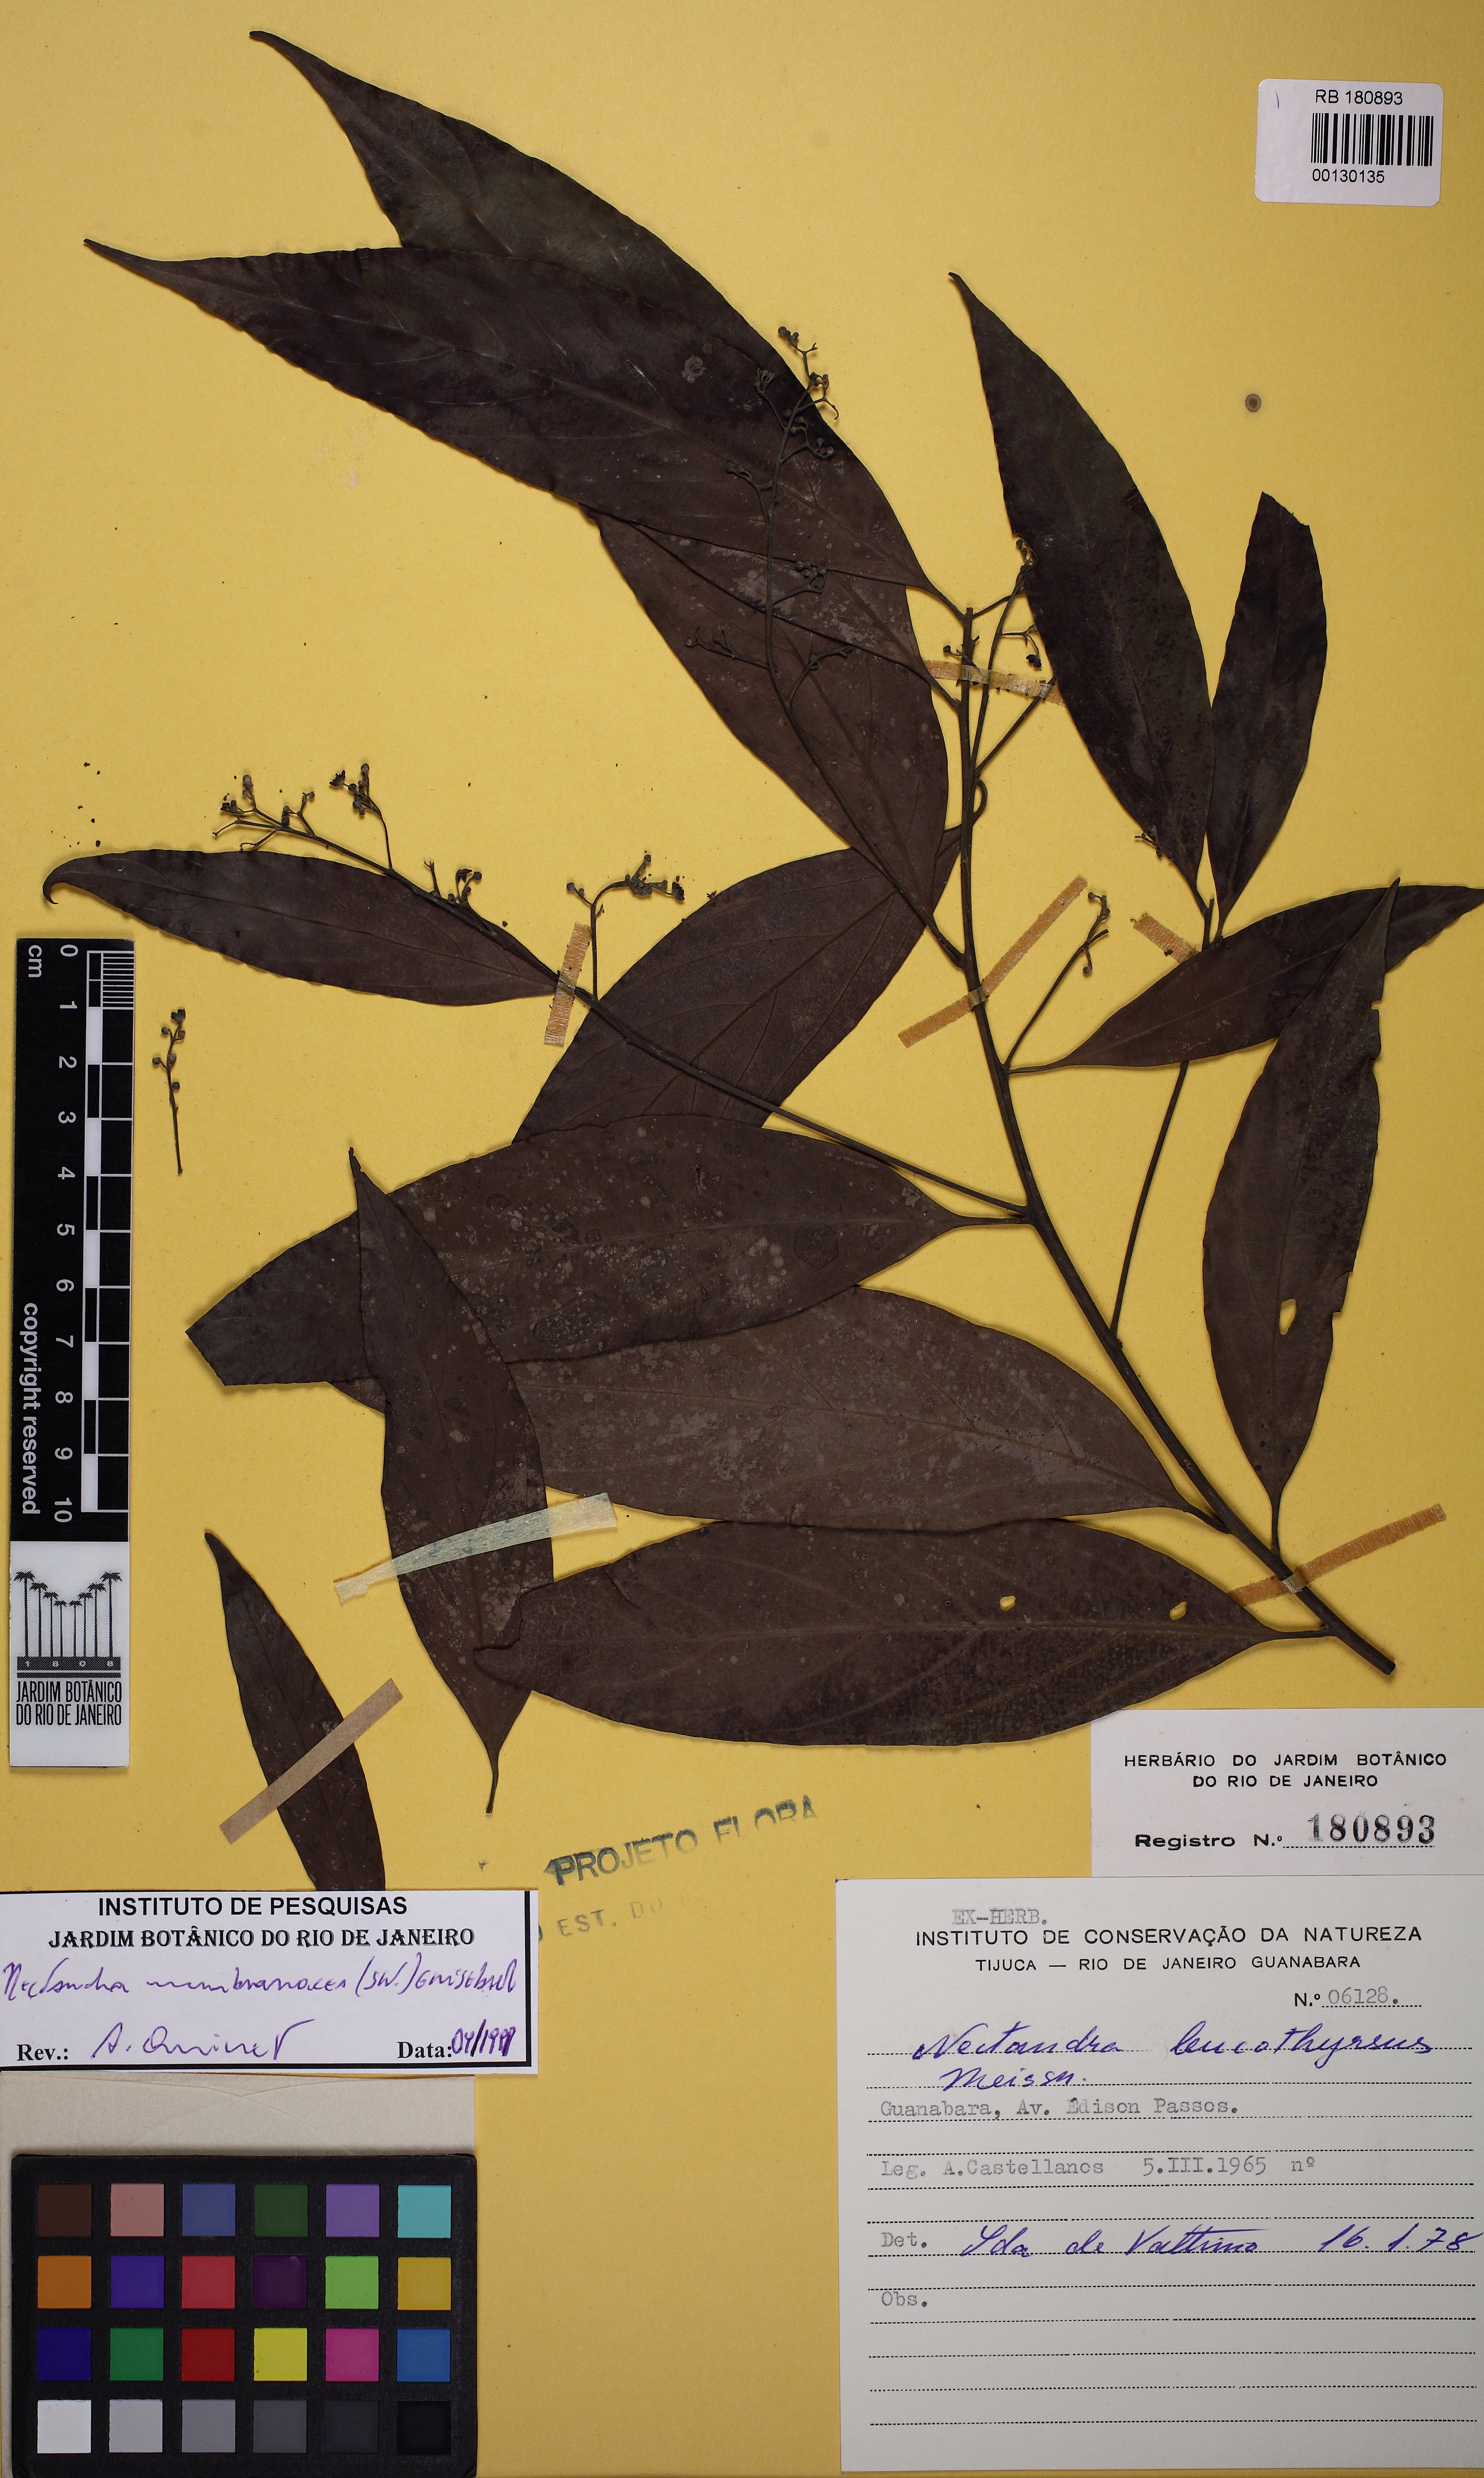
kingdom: Plantae
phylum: Tracheophyta
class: Magnoliopsida
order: Laurales
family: Lauraceae
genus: Nectandra
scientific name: Nectandra membranacea
